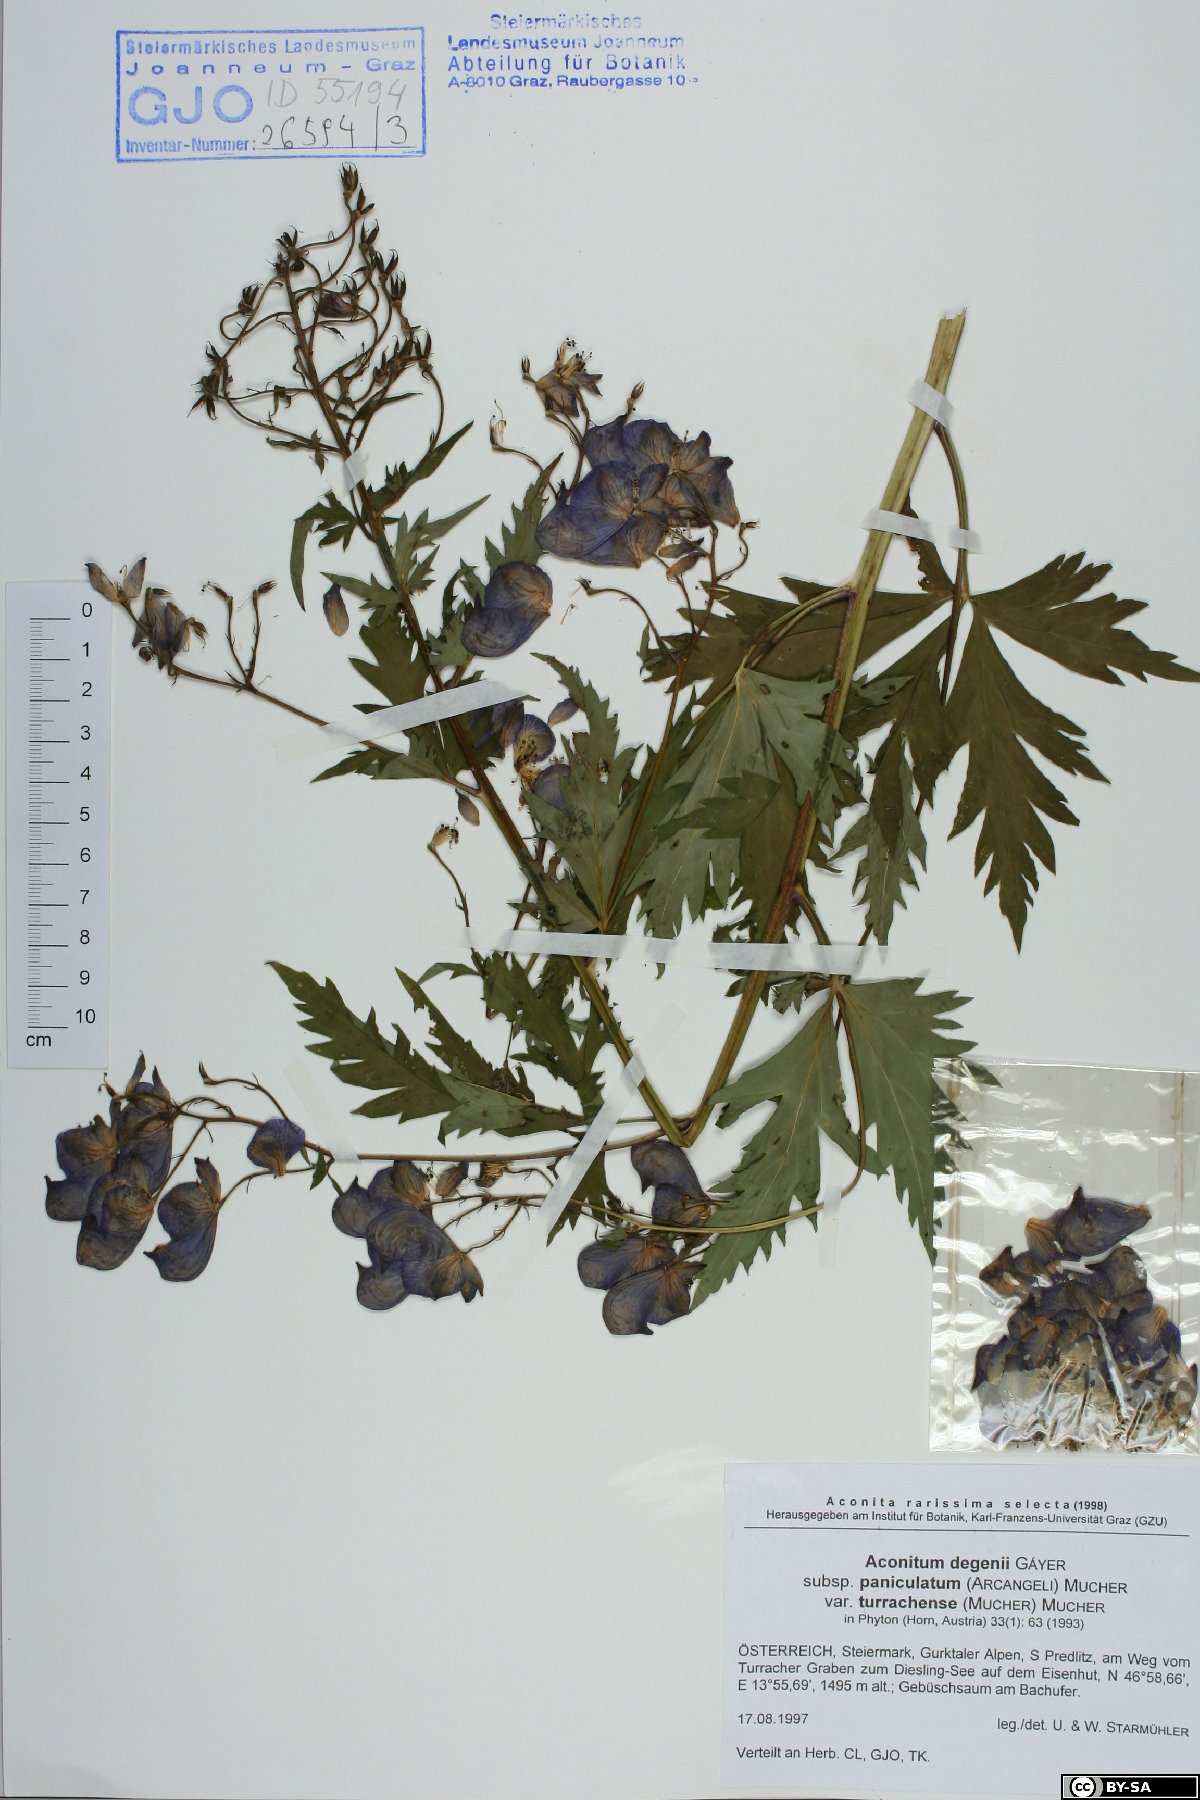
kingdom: Plantae
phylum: Tracheophyta
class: Magnoliopsida
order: Ranunculales
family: Ranunculaceae
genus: Aconitum
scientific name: Aconitum degenii
